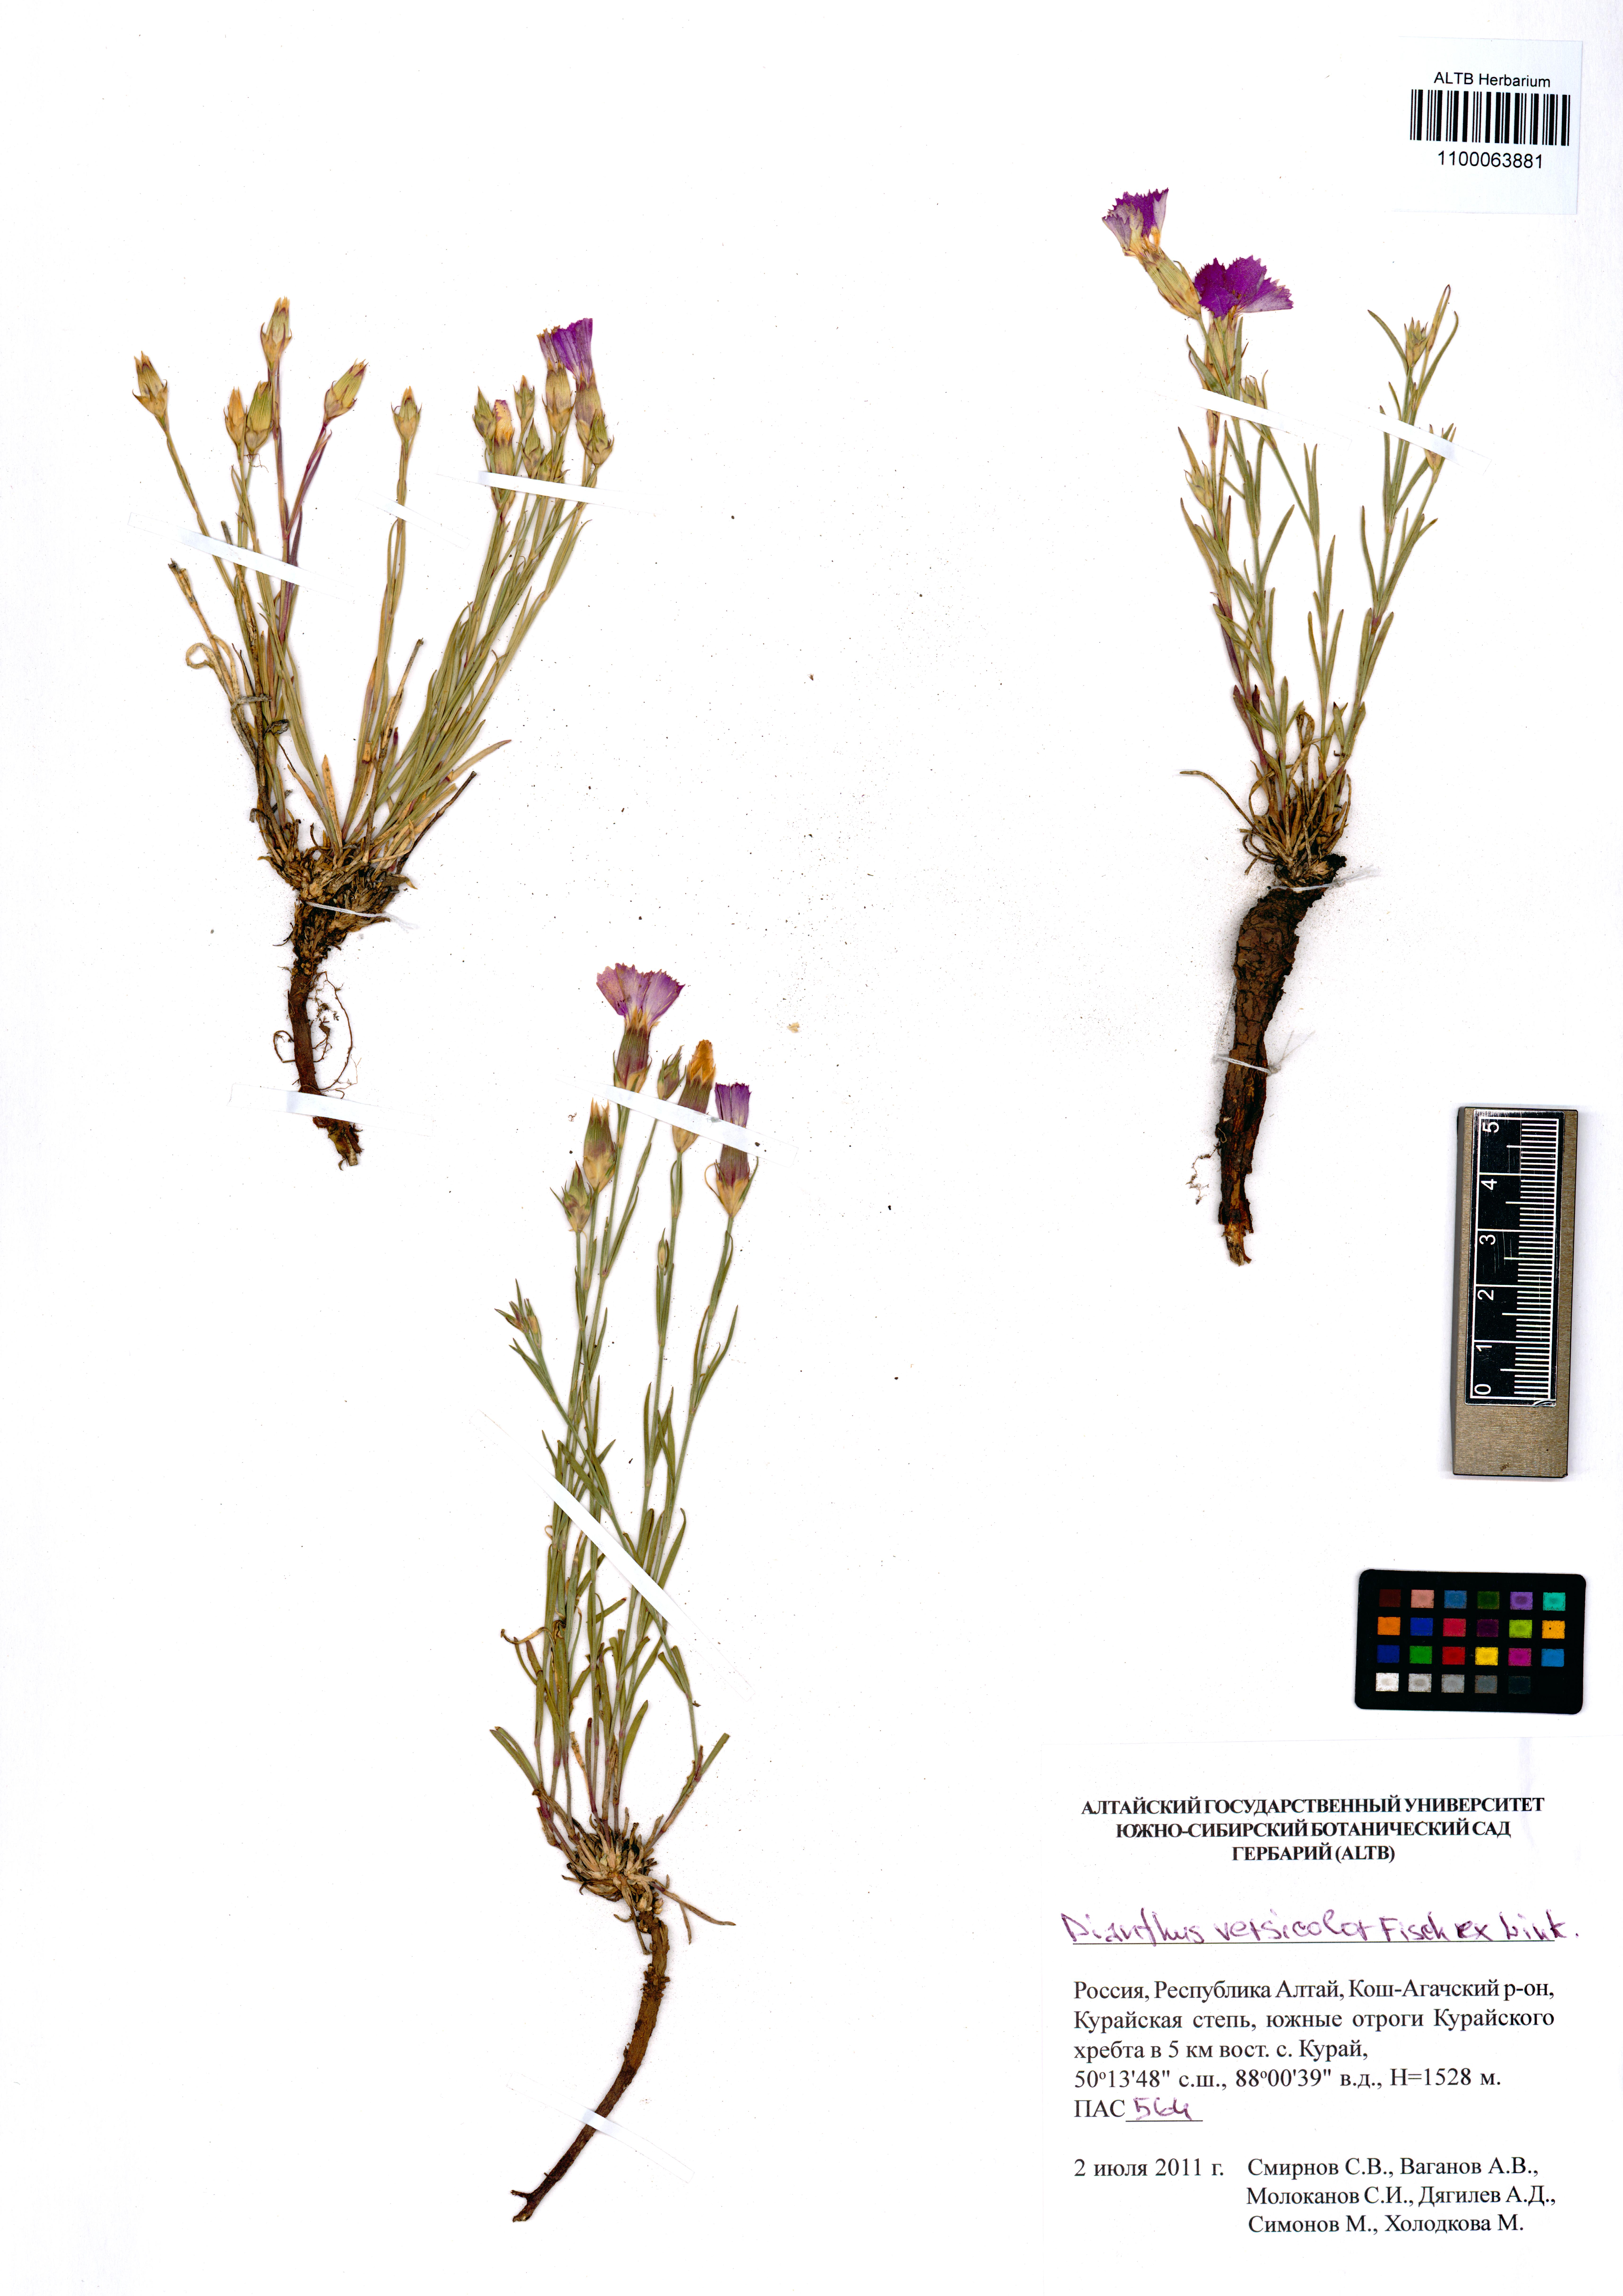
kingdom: Plantae
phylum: Tracheophyta
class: Magnoliopsida
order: Caryophyllales
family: Caryophyllaceae
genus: Dianthus
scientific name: Dianthus chinensis
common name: Rainbow pink
